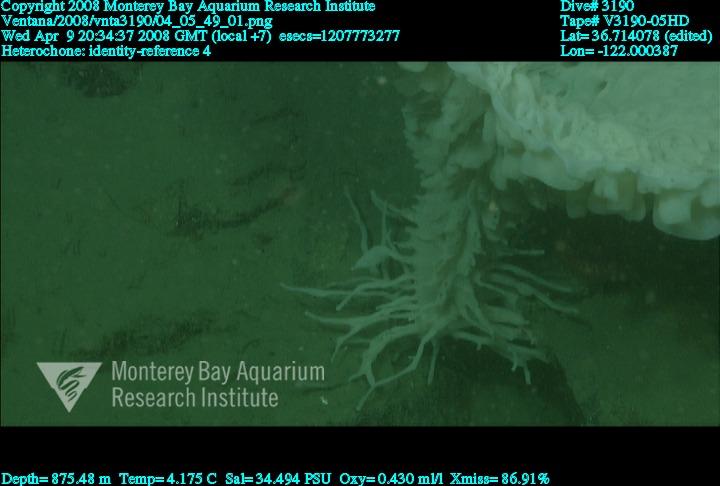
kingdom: Animalia
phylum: Porifera
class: Hexactinellida
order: Sceptrulophora
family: Aphrocallistidae
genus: Heterochone
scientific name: Heterochone
